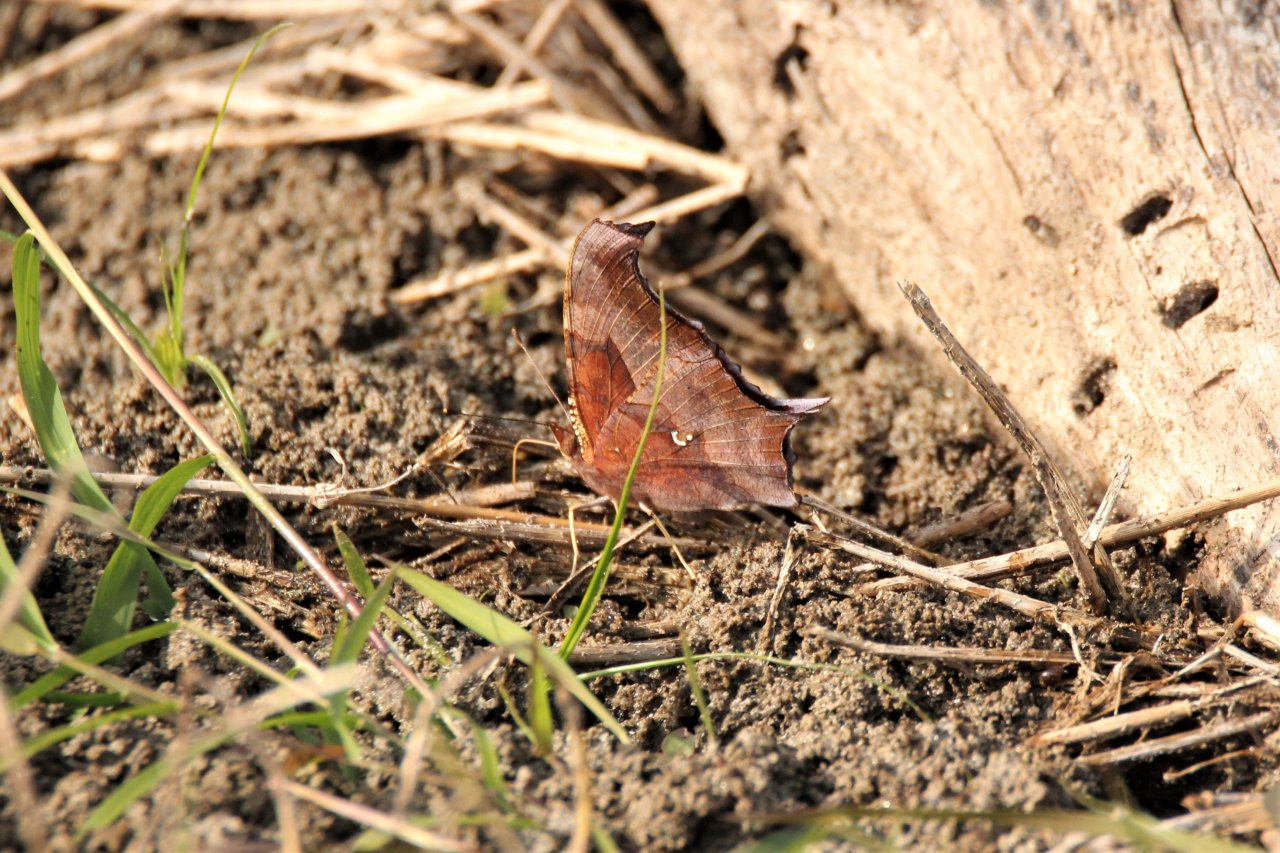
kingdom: Animalia
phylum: Arthropoda
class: Insecta
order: Lepidoptera
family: Nymphalidae
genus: Polygonia
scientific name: Polygonia interrogationis
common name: Question Mark
